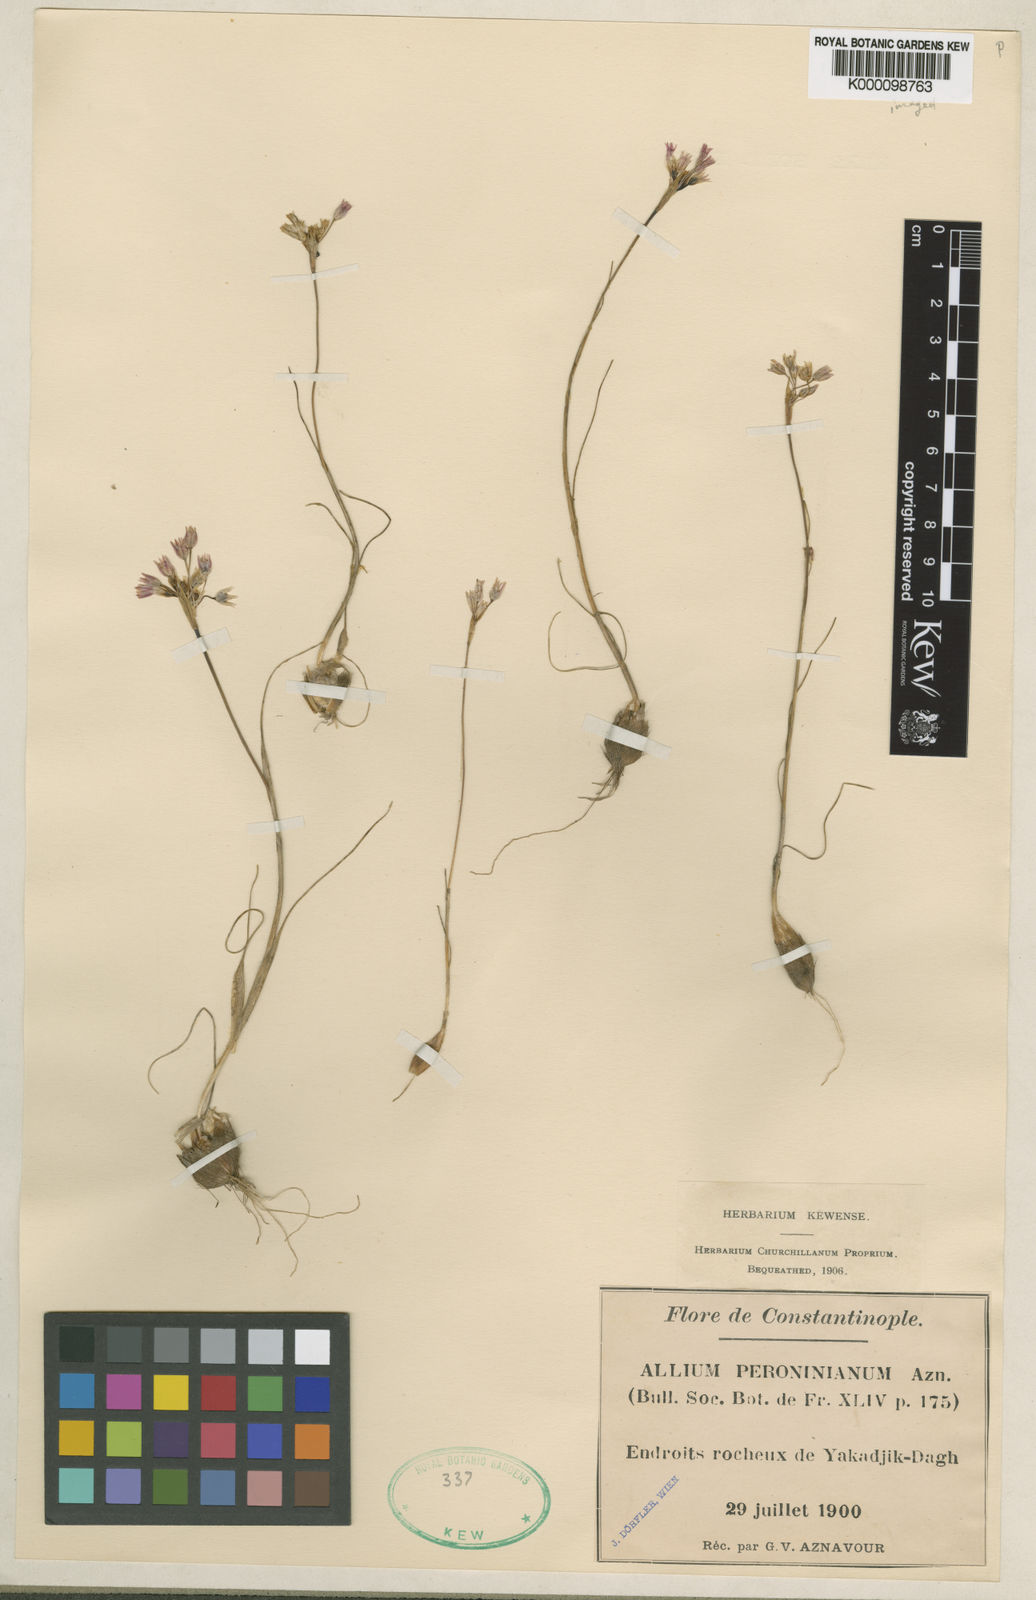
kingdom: Plantae
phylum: Tracheophyta
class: Liliopsida
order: Asparagales
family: Amaryllidaceae
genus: Allium
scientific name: Allium peroninianum
